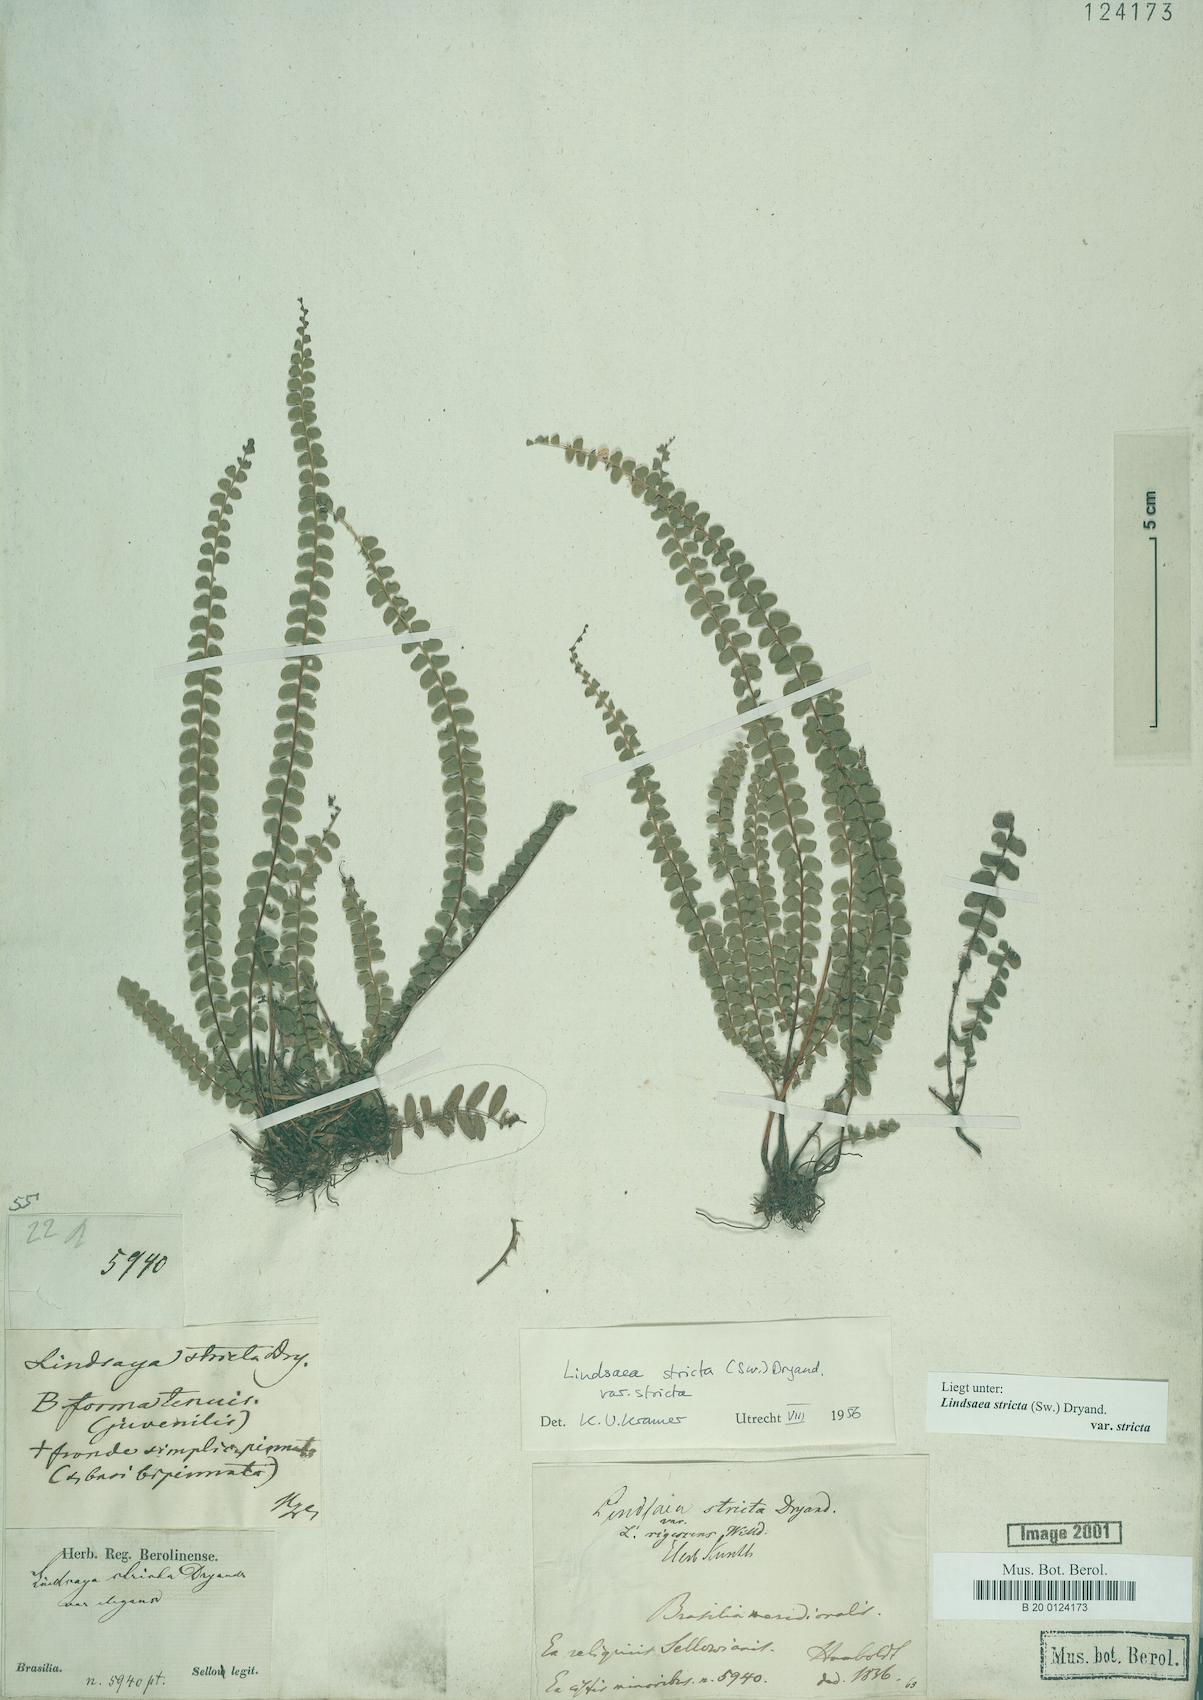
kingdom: Plantae
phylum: Tracheophyta
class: Polypodiopsida
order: Polypodiales
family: Lindsaeaceae
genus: Lindsaea
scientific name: Lindsaea stricta
